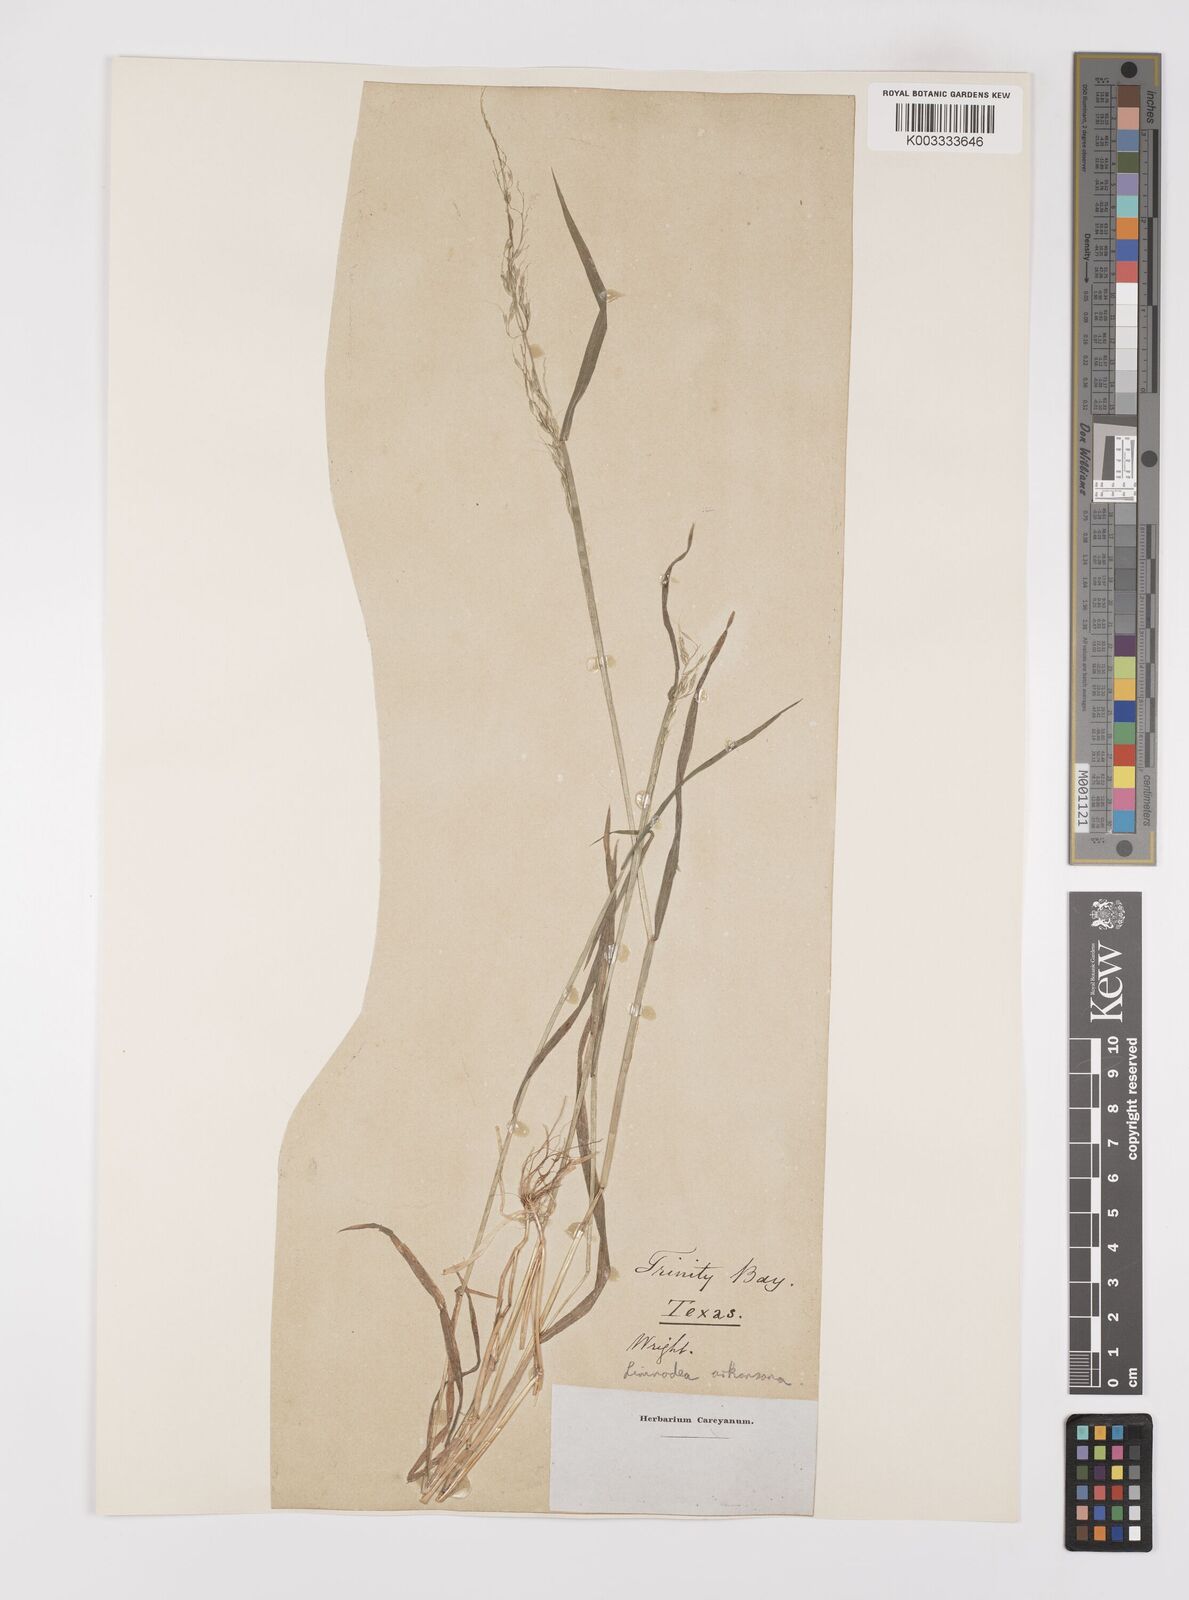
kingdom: Plantae
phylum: Tracheophyta
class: Liliopsida
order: Poales
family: Poaceae
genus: Limnodea
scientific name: Limnodea arkansana
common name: Ozark-grass
